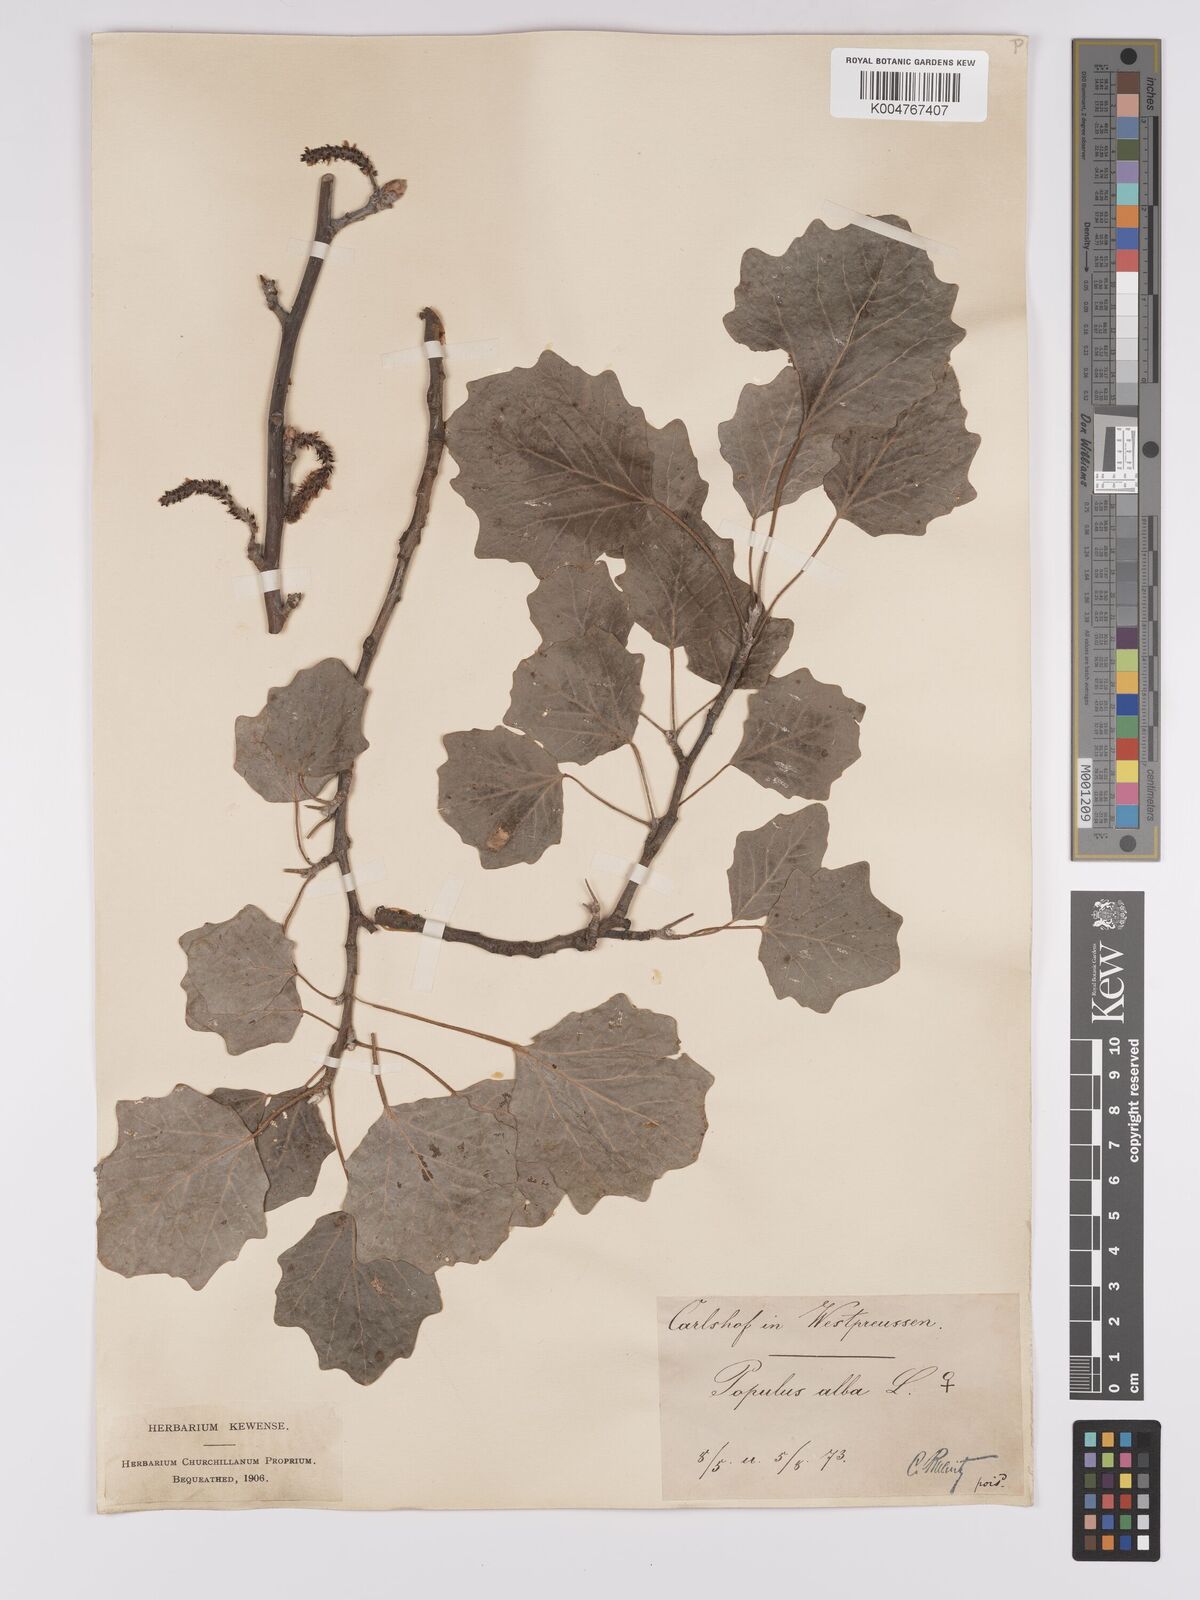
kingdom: Plantae
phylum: Tracheophyta
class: Magnoliopsida
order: Malpighiales
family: Salicaceae
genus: Populus
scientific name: Populus alba
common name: White poplar
